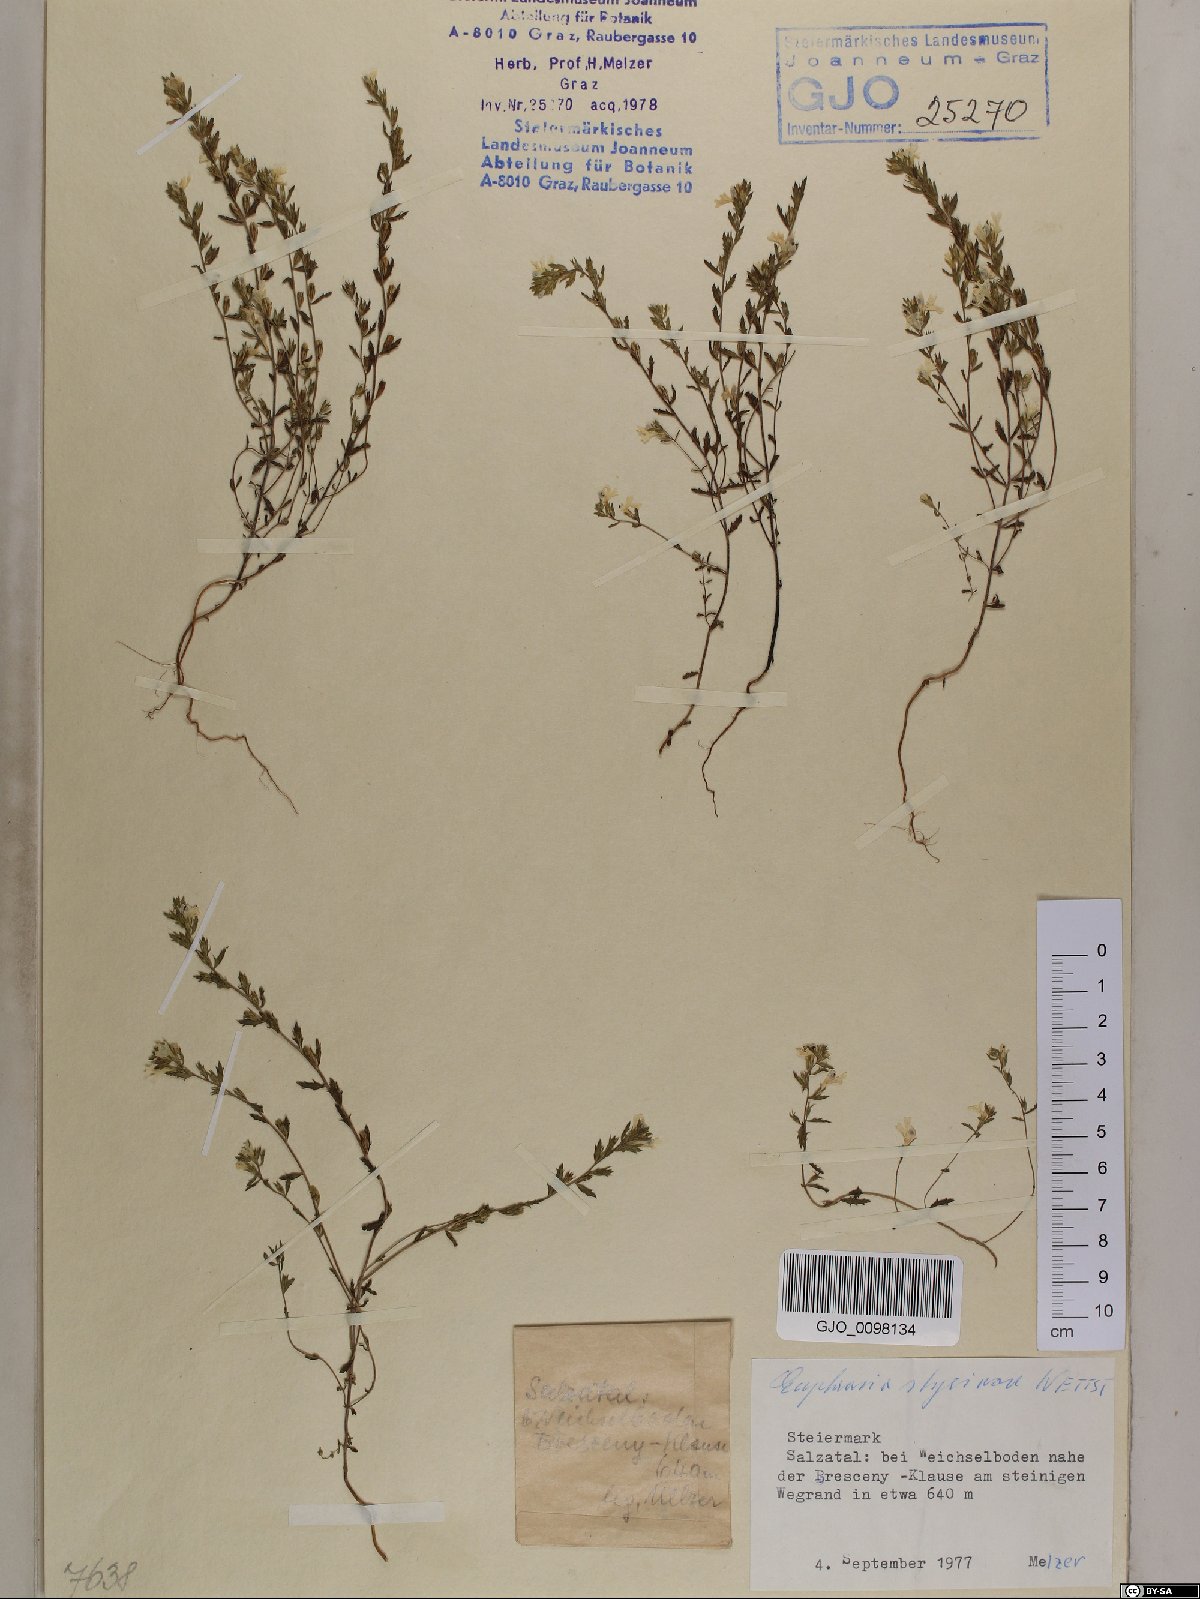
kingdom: Plantae
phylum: Tracheophyta
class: Magnoliopsida
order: Lamiales
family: Orobanchaceae
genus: Euphrasia
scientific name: Euphrasia cuspidata
